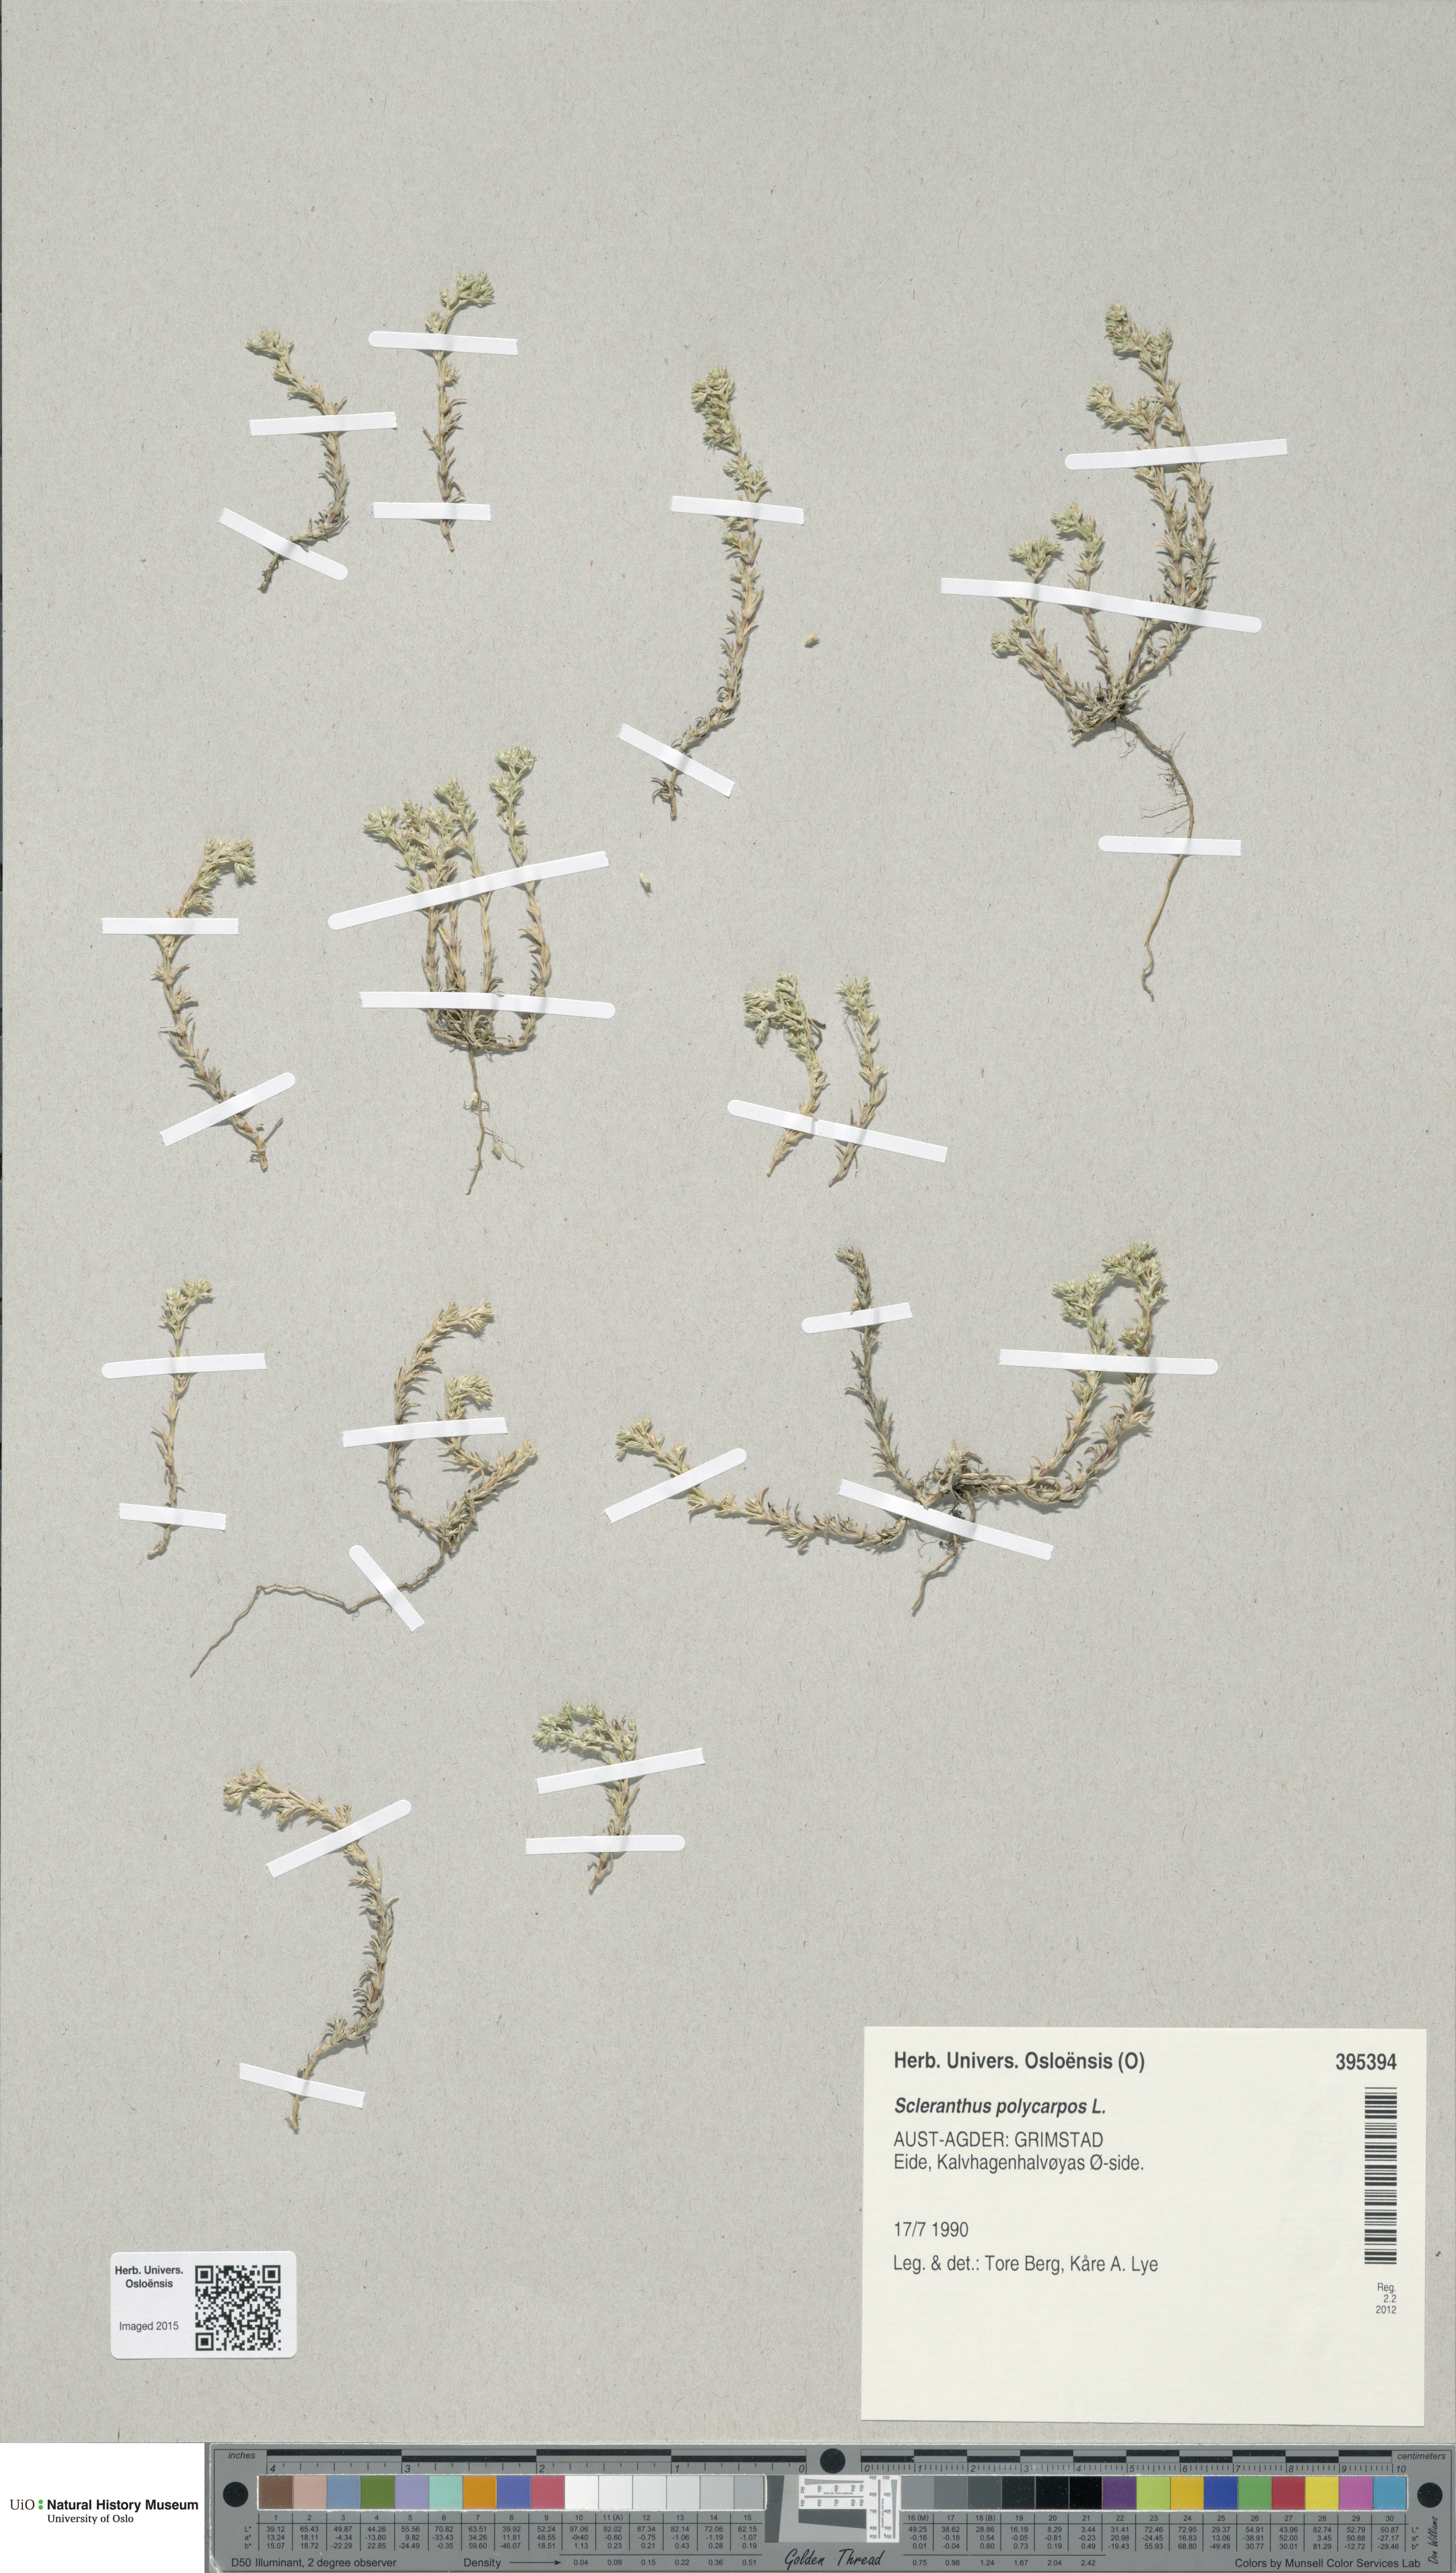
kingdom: Plantae
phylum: Tracheophyta
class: Magnoliopsida
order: Caryophyllales
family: Caryophyllaceae
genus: Scleranthus
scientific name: Scleranthus annuus
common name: Annual knawel
